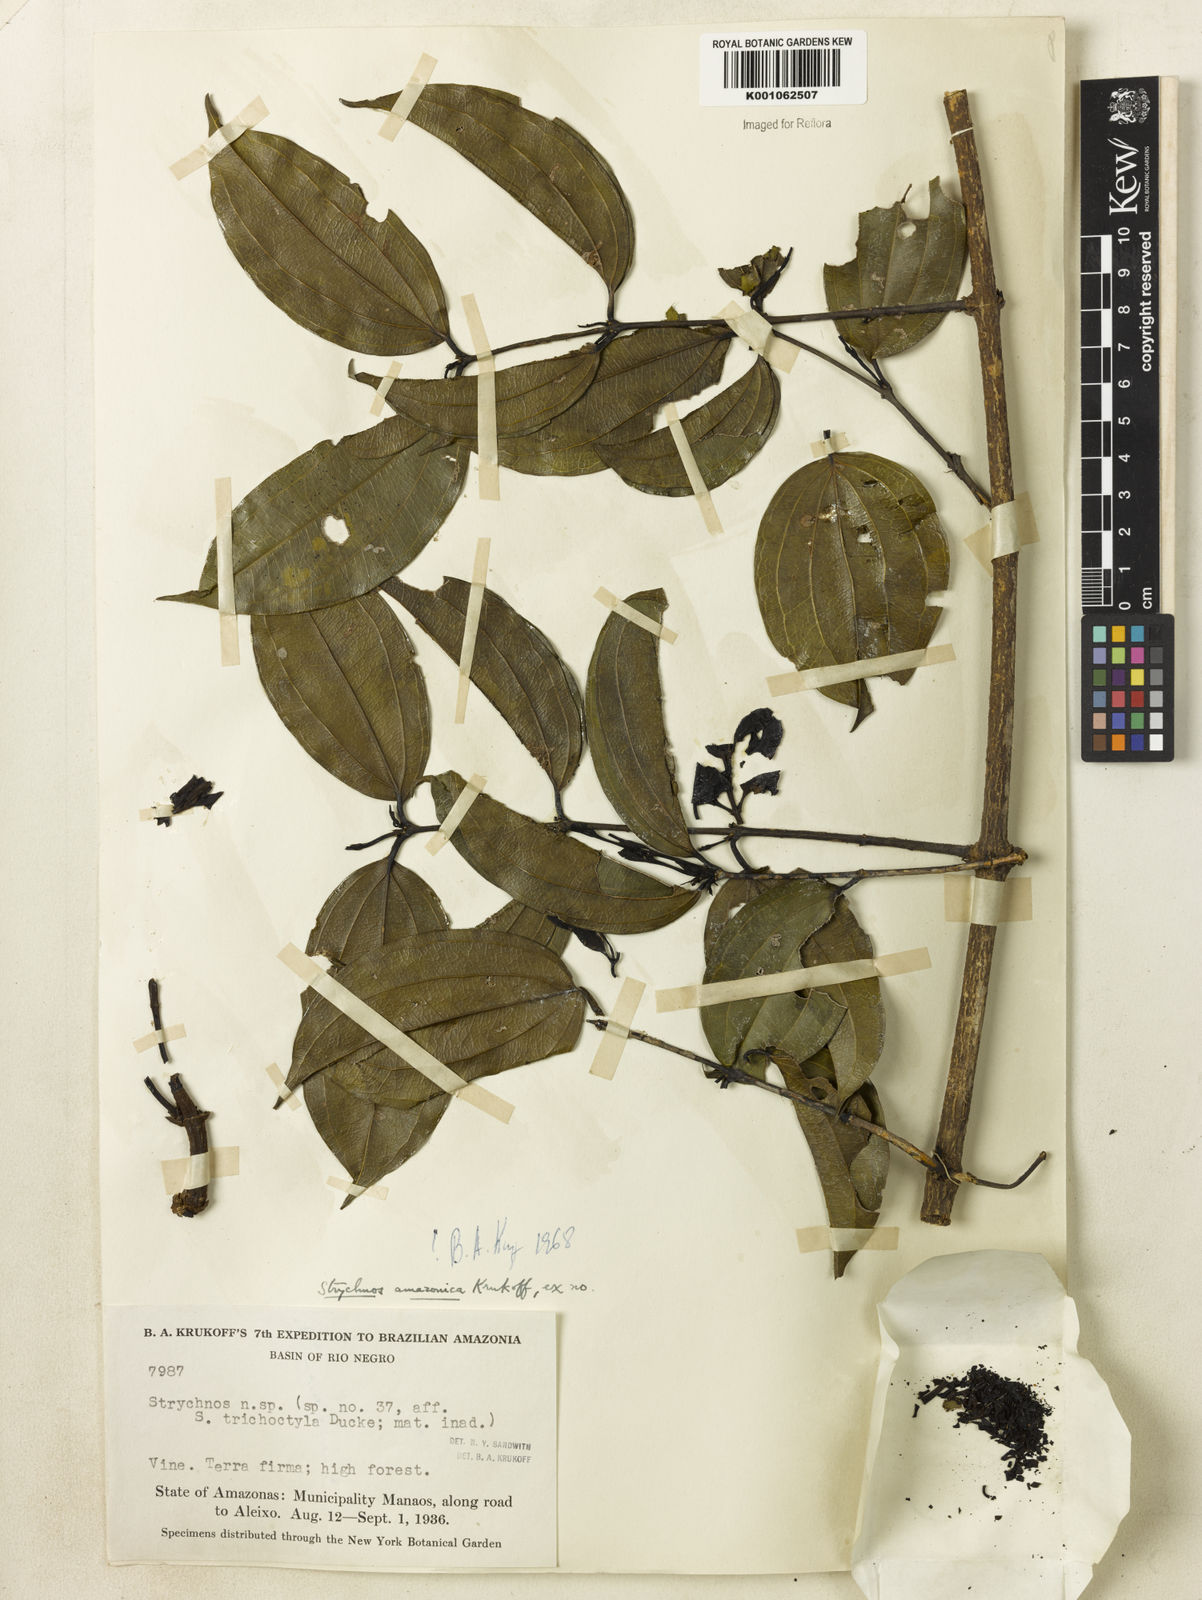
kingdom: Plantae
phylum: Tracheophyta
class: Magnoliopsida
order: Gentianales
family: Loganiaceae
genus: Strychnos
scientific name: Strychnos amazonica
